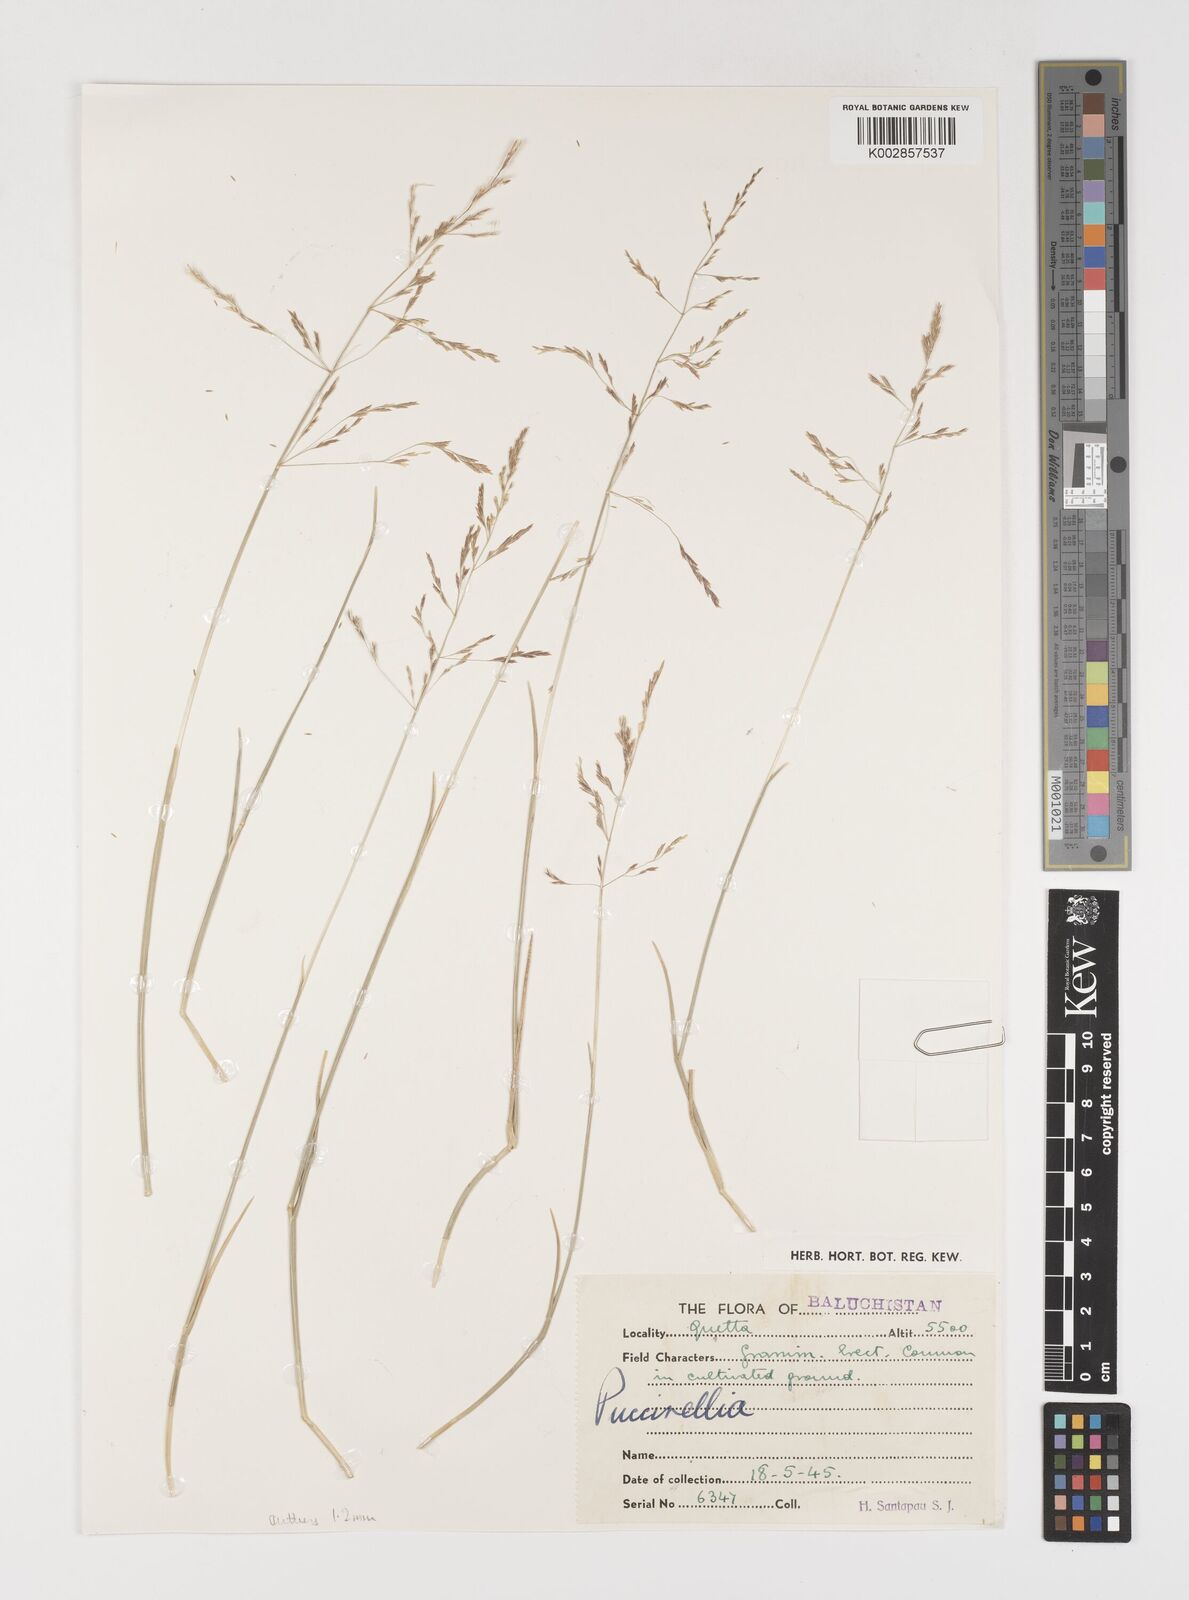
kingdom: Plantae
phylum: Tracheophyta
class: Liliopsida
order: Poales
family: Poaceae
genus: Puccinellia
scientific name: Puccinellia gigantea
